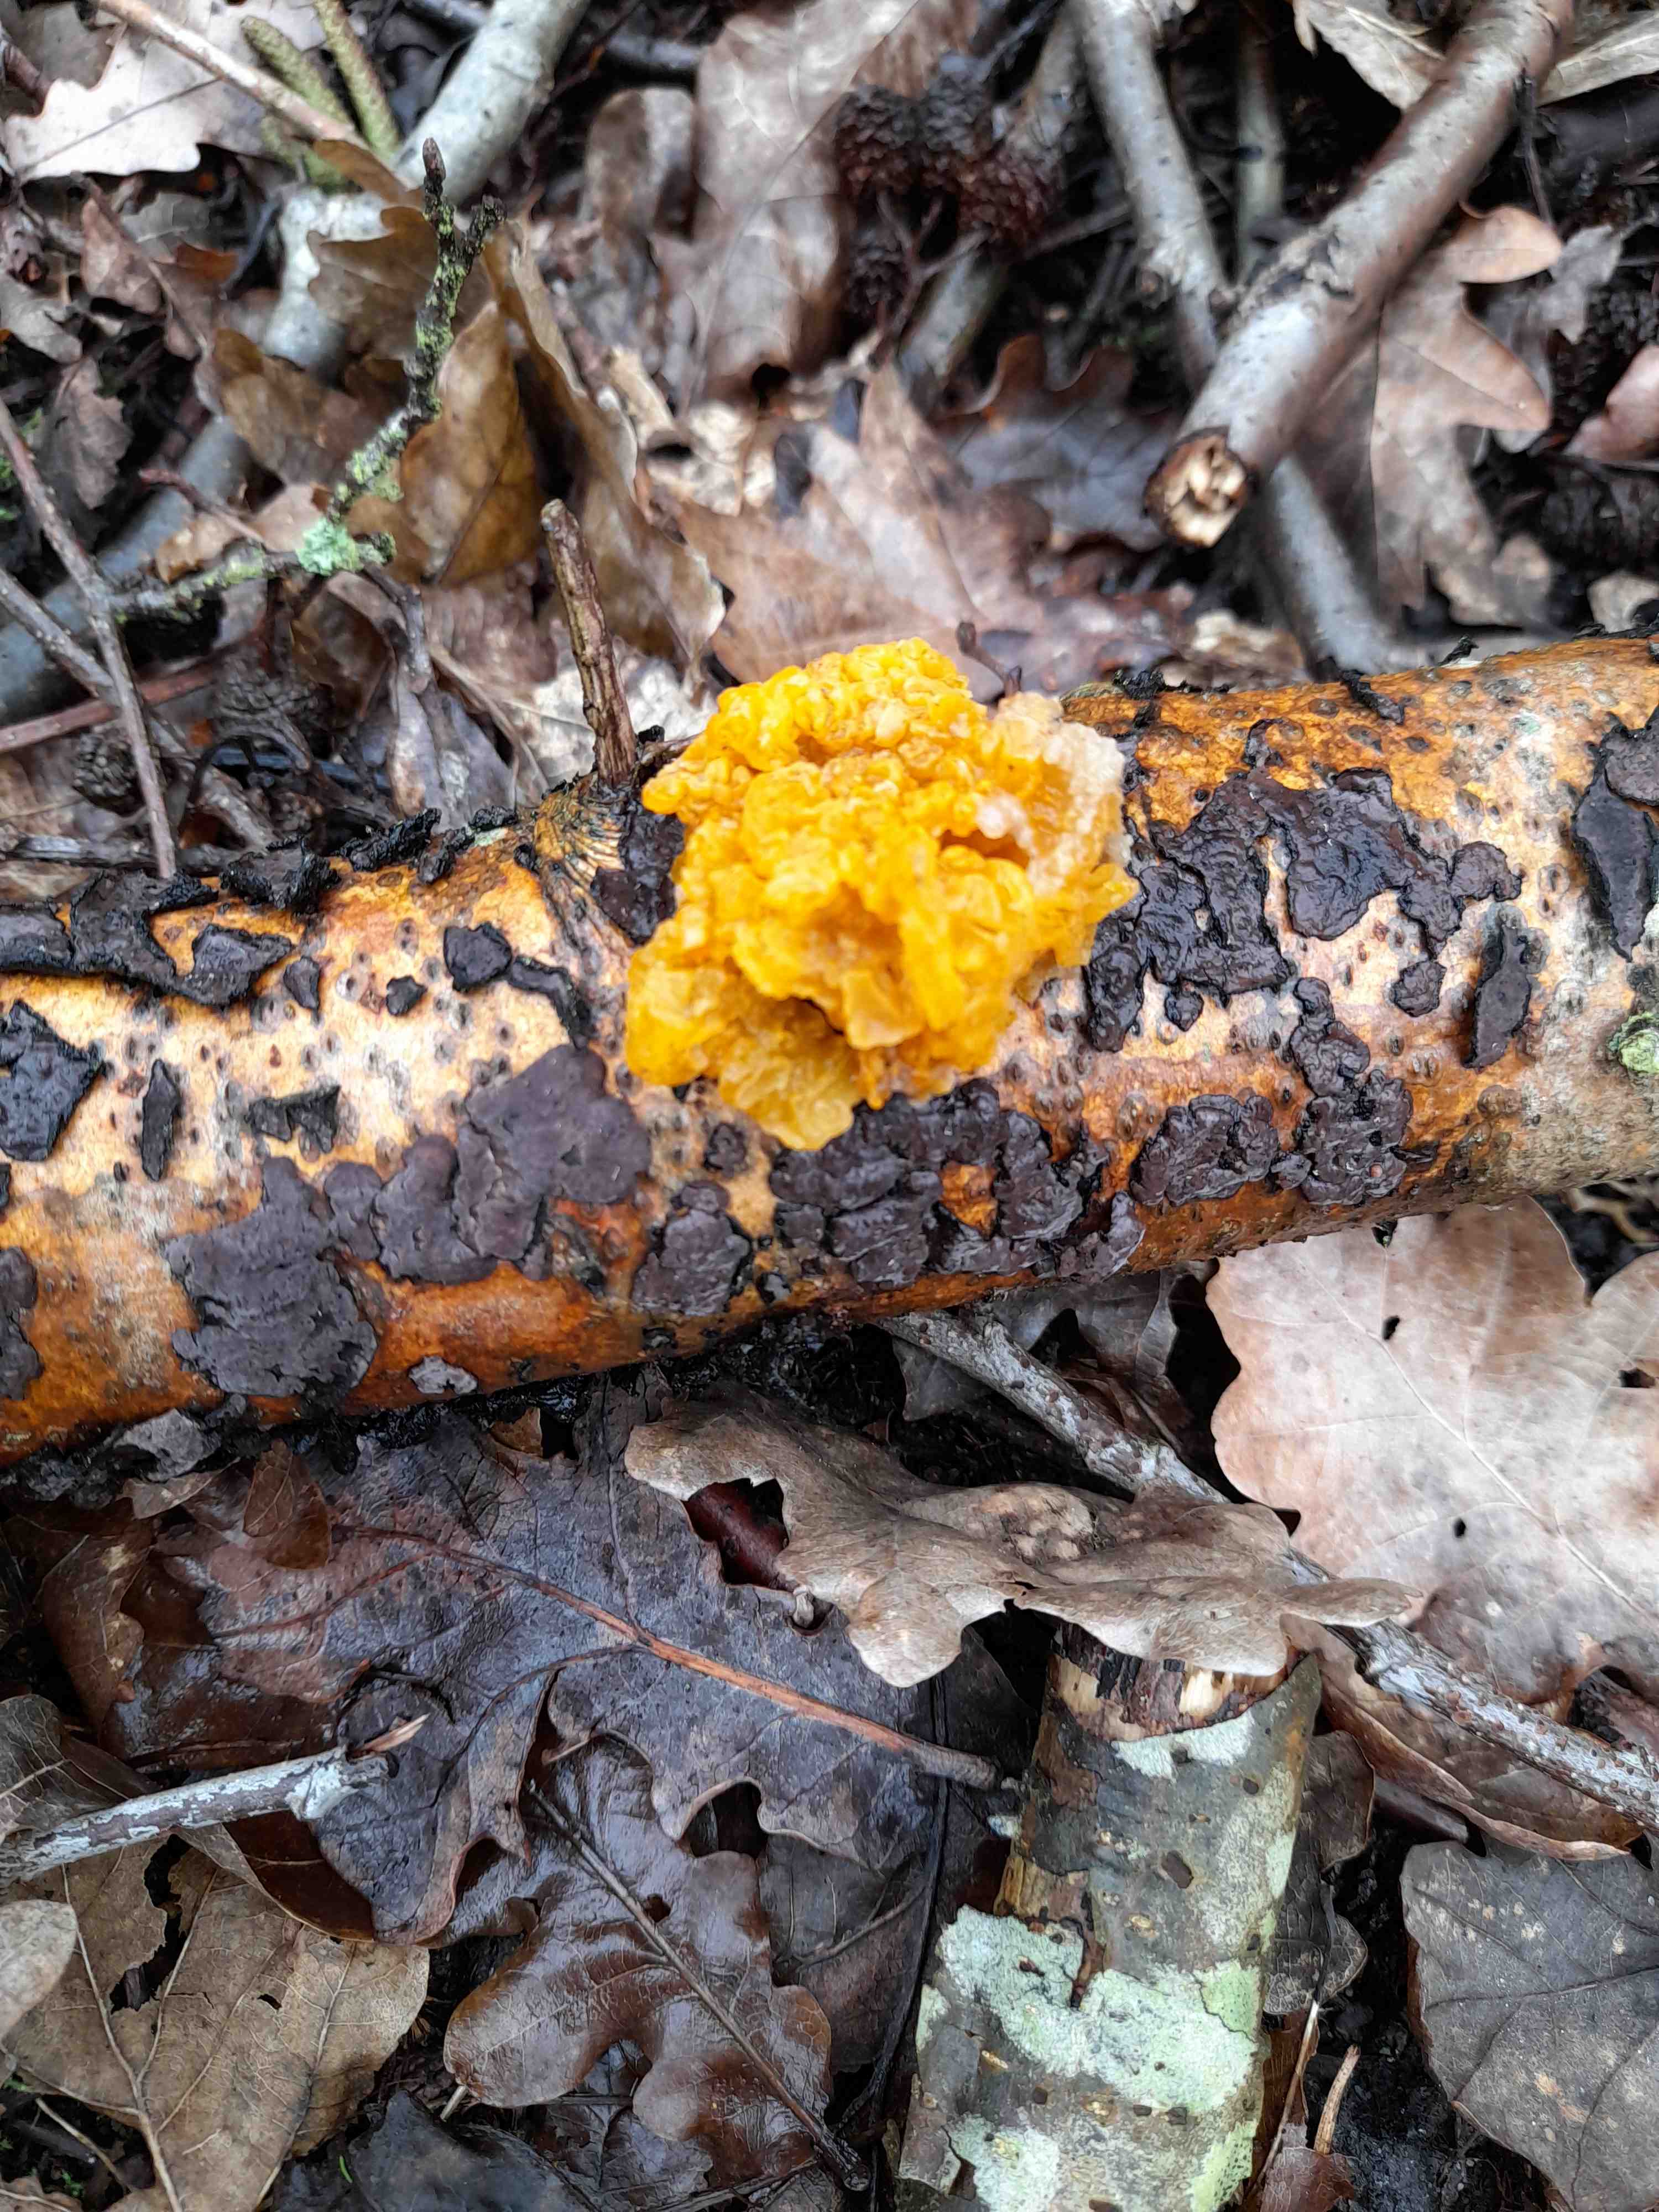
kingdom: Fungi
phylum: Basidiomycota
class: Tremellomycetes
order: Tremellales
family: Tremellaceae
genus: Tremella
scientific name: Tremella mesenterica
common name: gul bævresvamp
